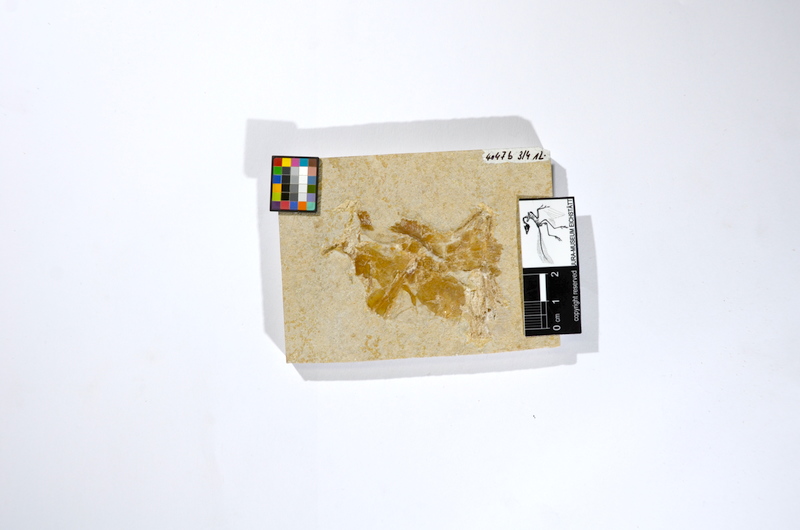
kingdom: Animalia
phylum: Chordata
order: Amiiformes
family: Caturidae
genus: Caturus
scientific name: Caturus
